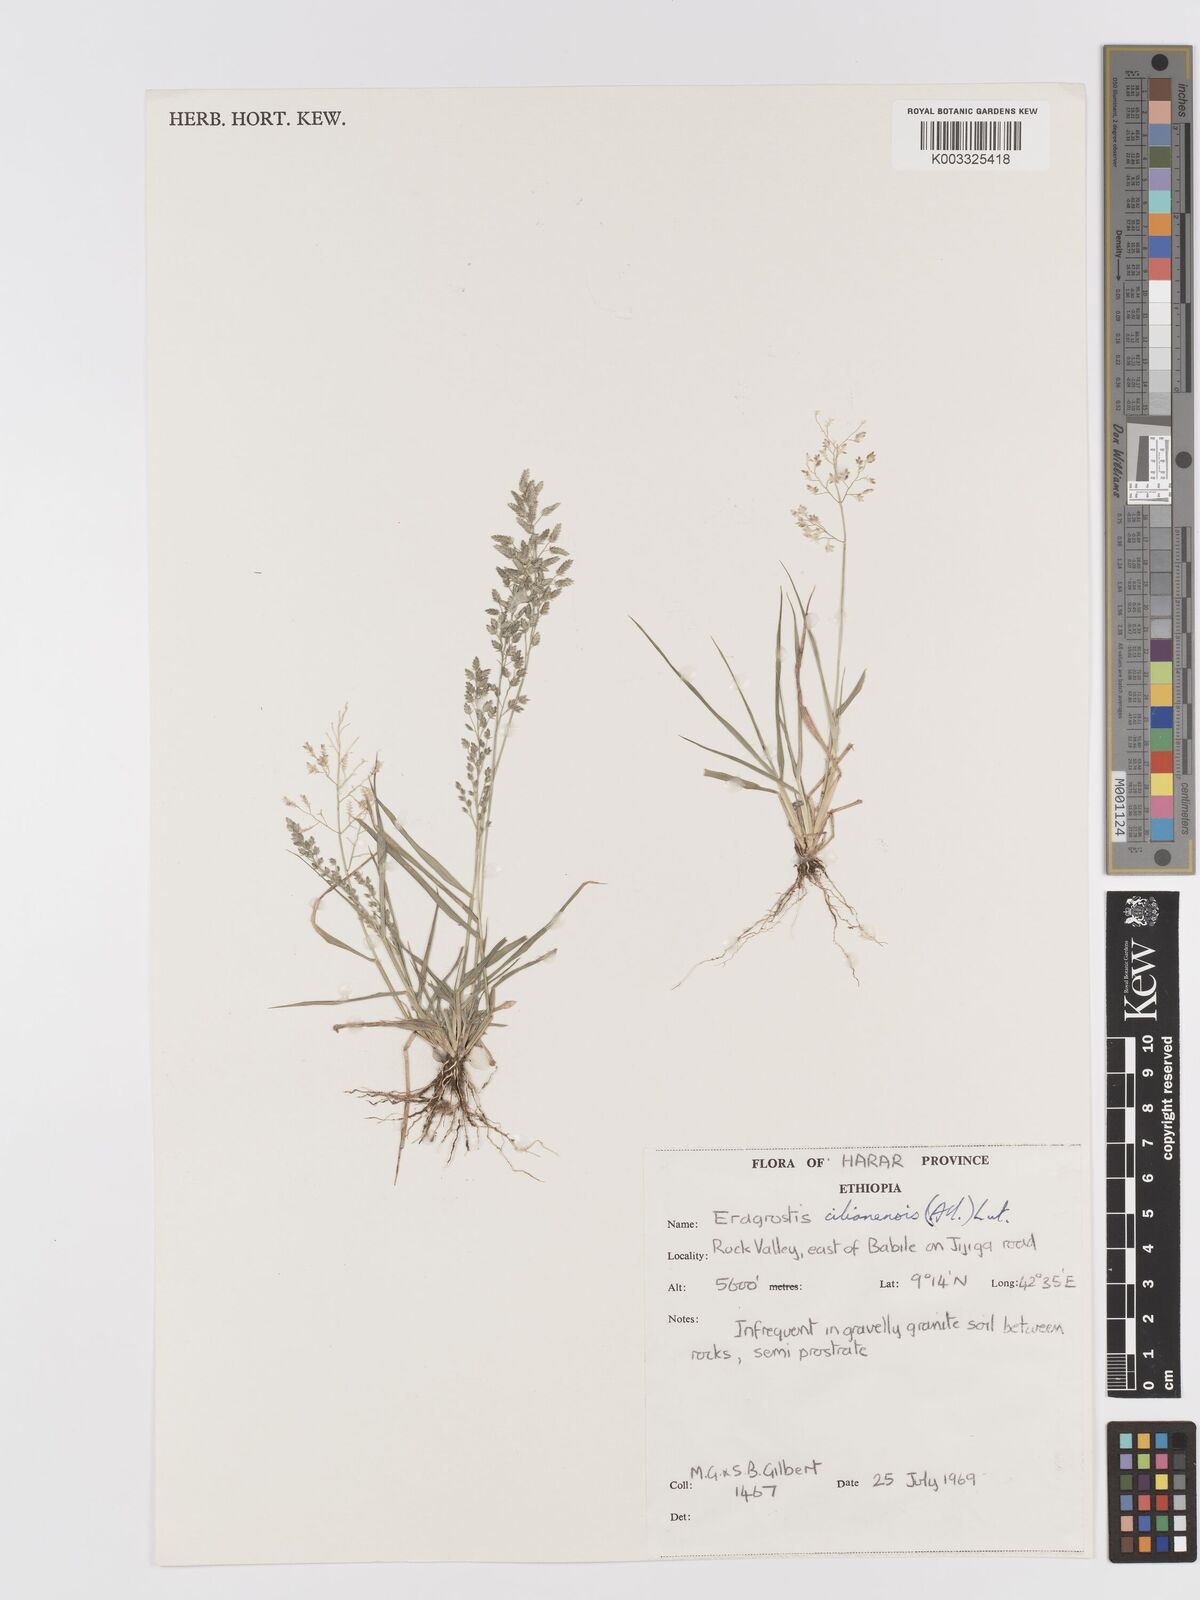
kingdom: Plantae
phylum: Tracheophyta
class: Liliopsida
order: Poales
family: Poaceae
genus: Eragrostis
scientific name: Eragrostis cilianensis
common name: Stinkgrass
